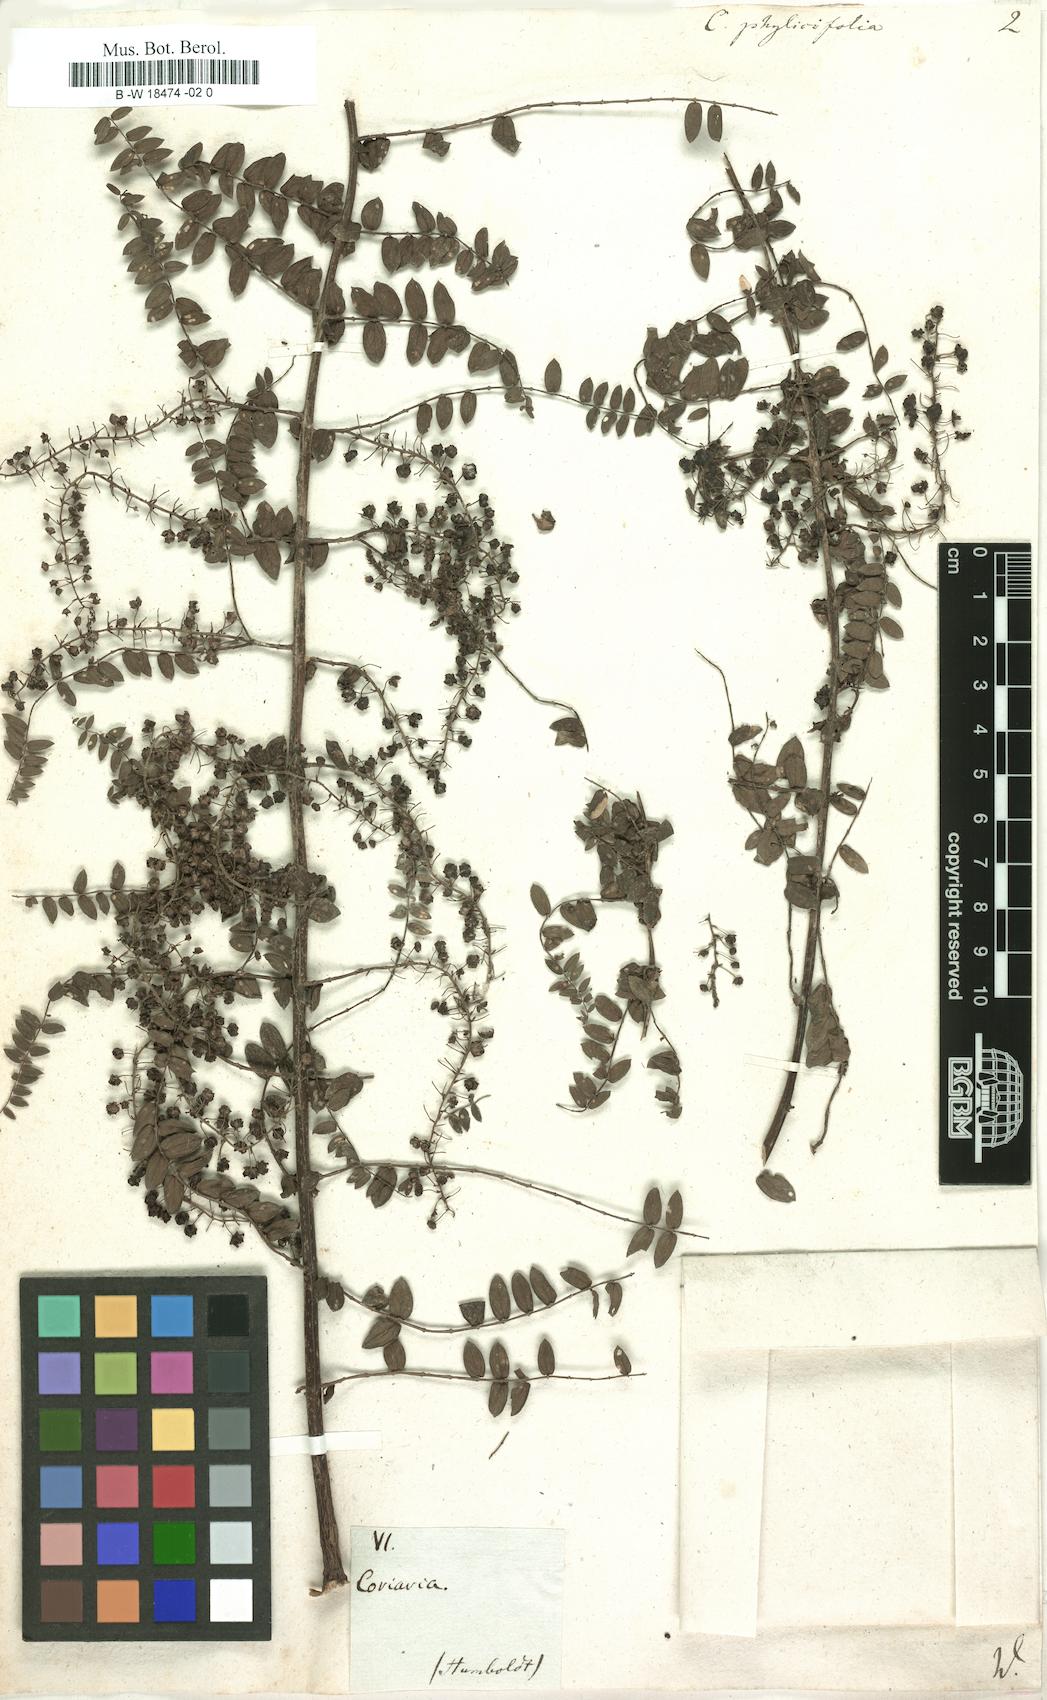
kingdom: Plantae
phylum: Tracheophyta
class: Magnoliopsida
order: Cucurbitales
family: Coriariaceae
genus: Coriaria
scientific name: Coriaria microphylla
